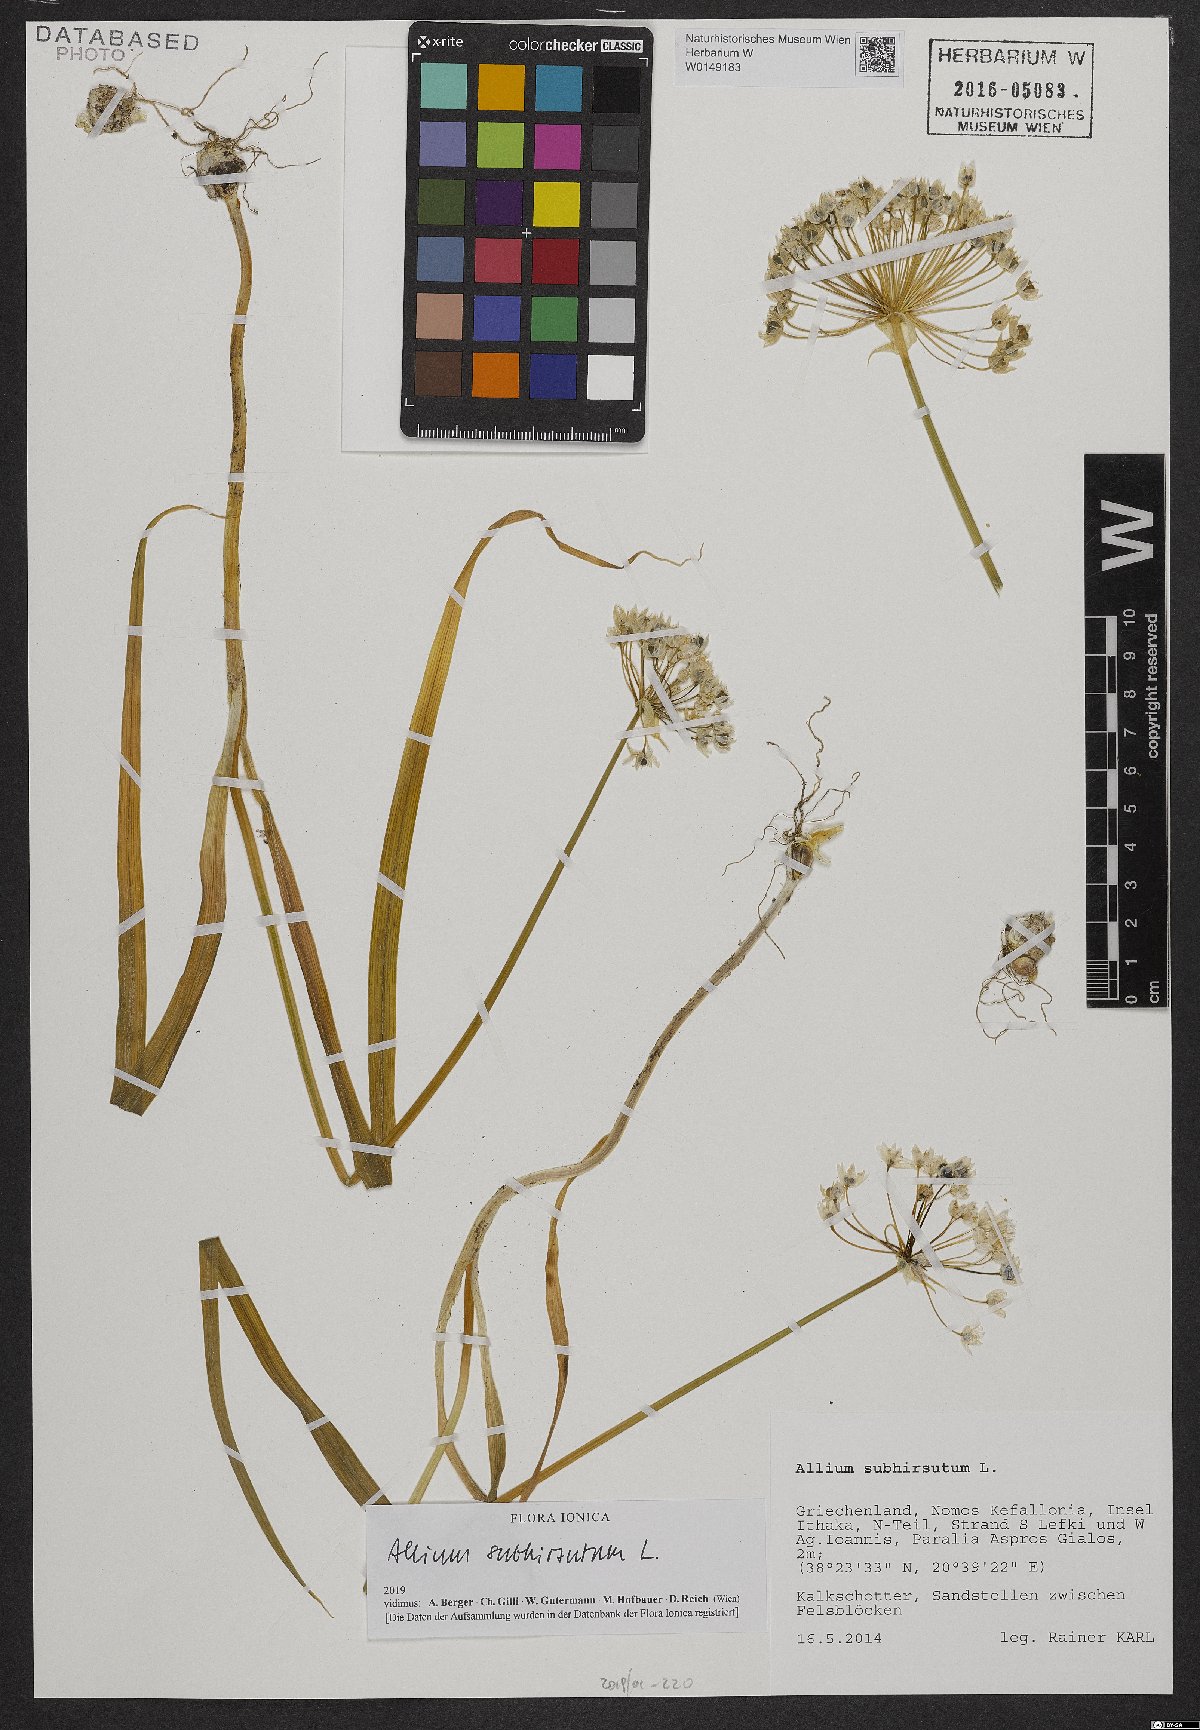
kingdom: Plantae
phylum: Tracheophyta
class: Liliopsida
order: Asparagales
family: Amaryllidaceae
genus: Allium
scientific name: Allium subhirsutum
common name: Hairy garlic
